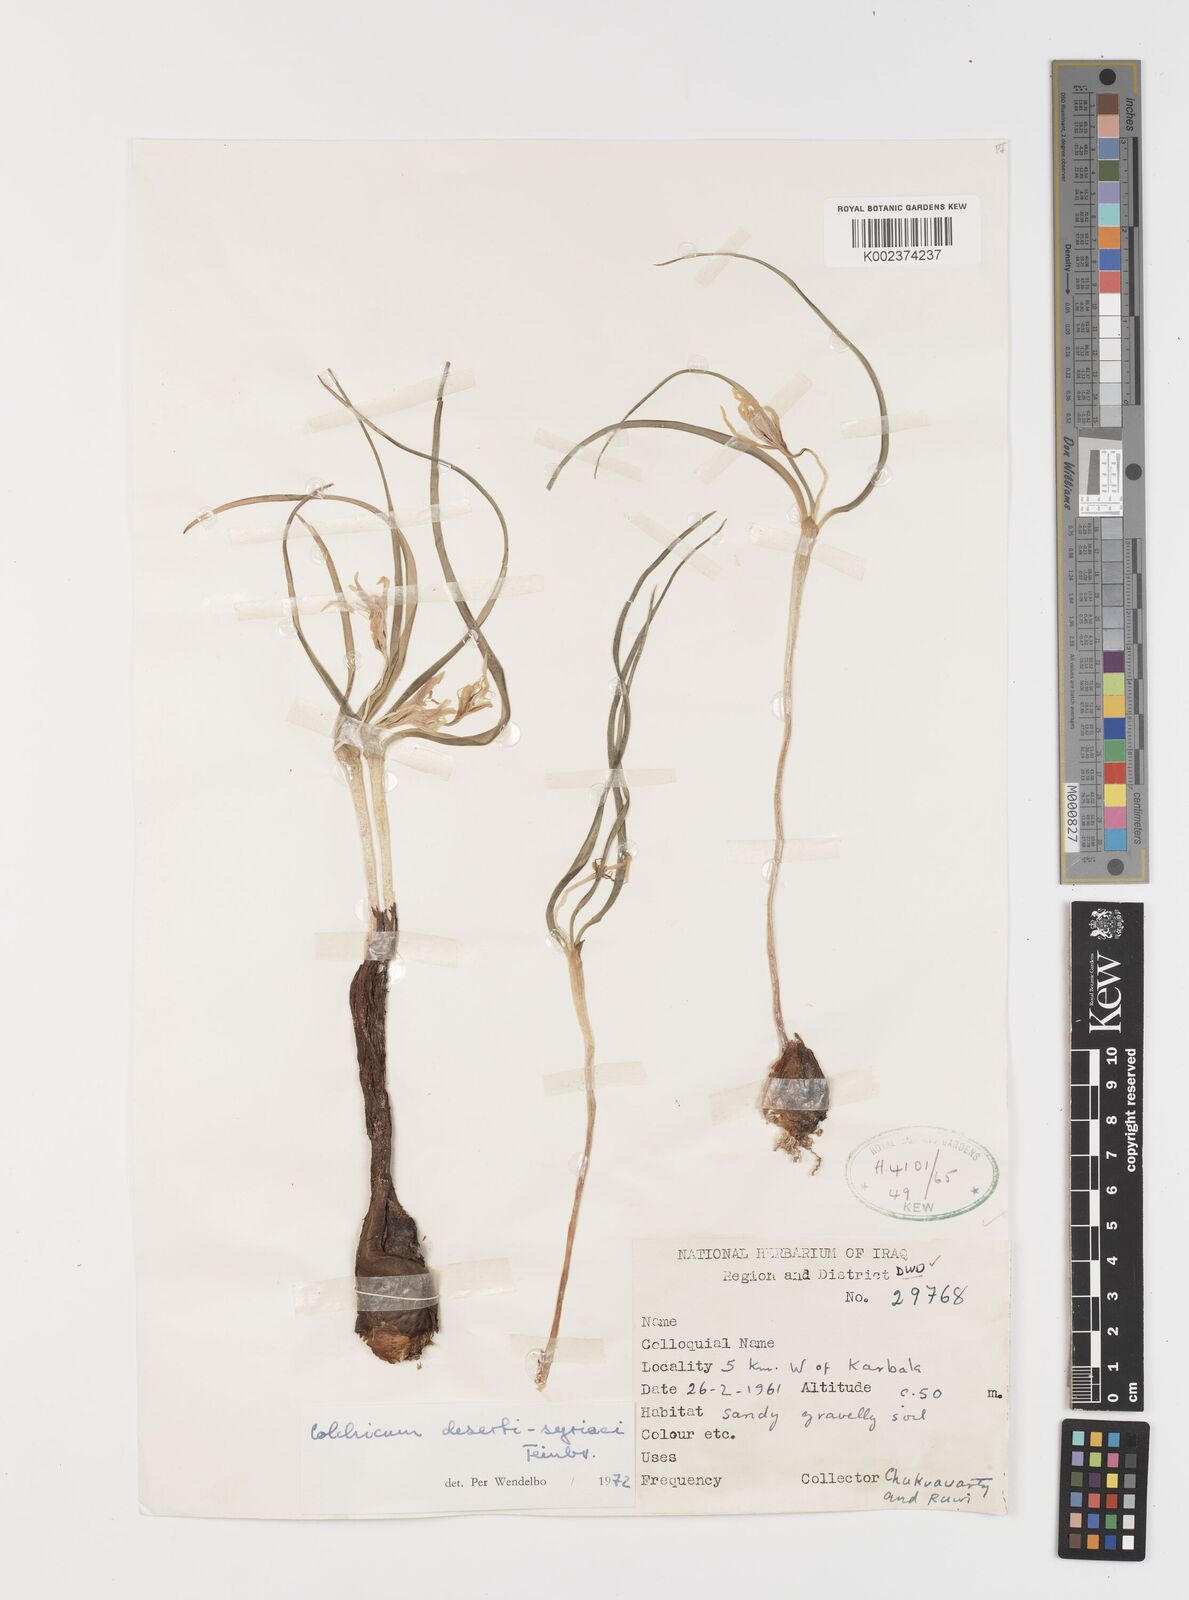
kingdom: Plantae
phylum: Tracheophyta
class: Liliopsida
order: Liliales
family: Colchicaceae
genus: Colchicum
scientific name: Colchicum schimperi
